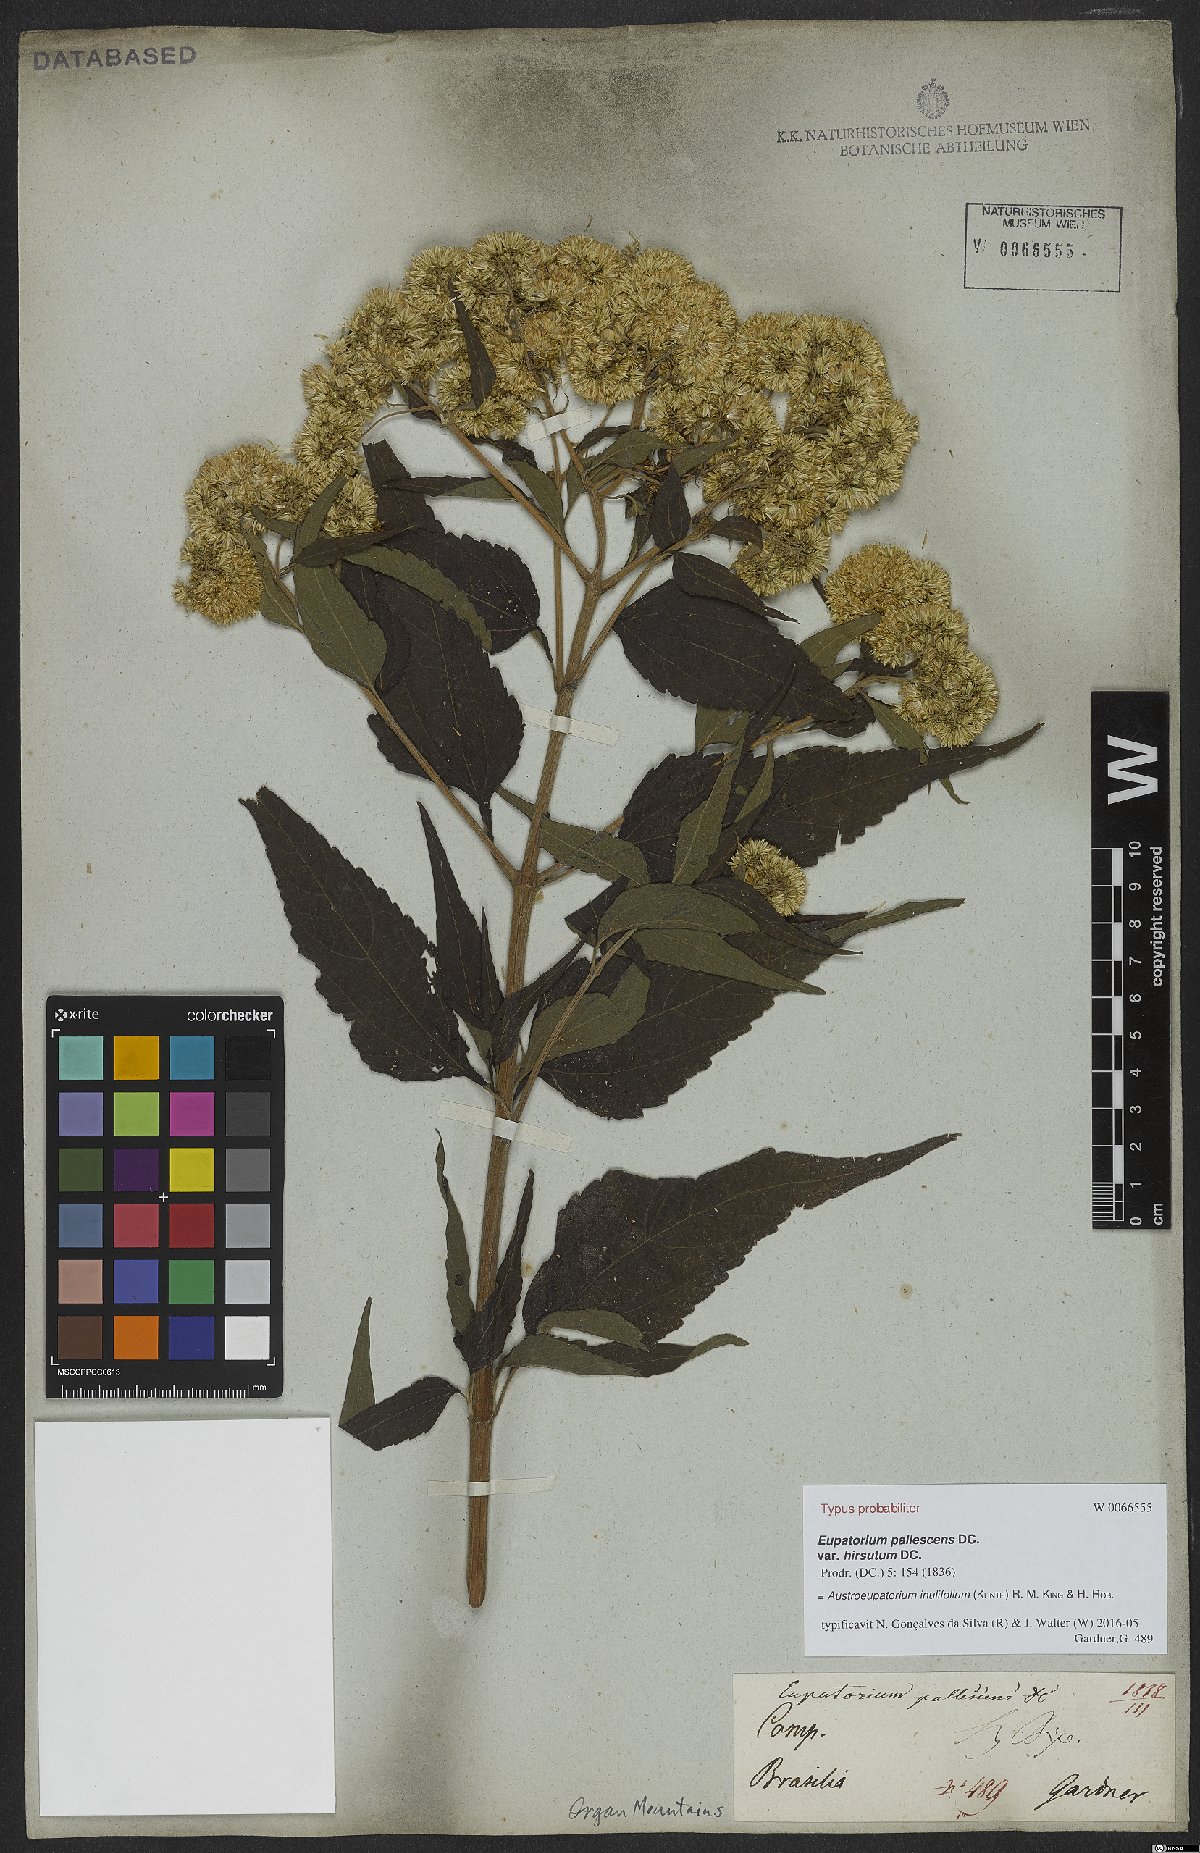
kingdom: Plantae
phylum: Tracheophyta
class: Magnoliopsida
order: Asterales
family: Asteraceae
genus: Austroeupatorium
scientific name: Austroeupatorium inulifolium
